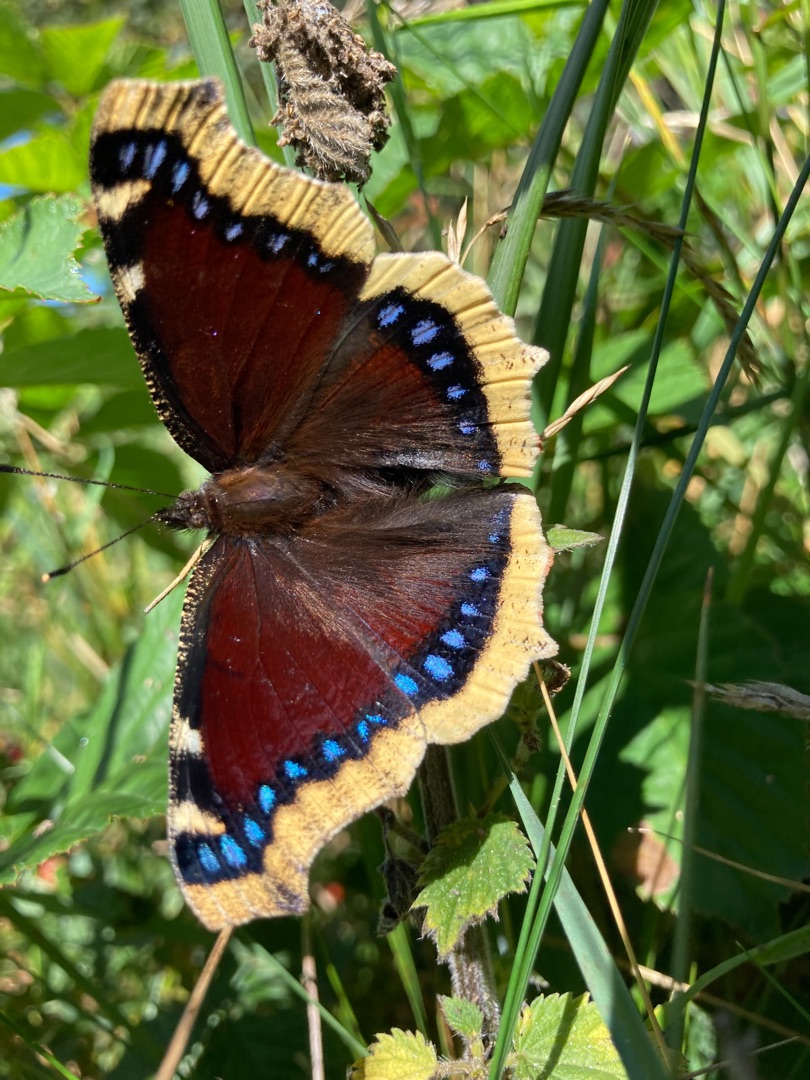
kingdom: Animalia
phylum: Arthropoda
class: Insecta
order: Lepidoptera
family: Nymphalidae
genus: Nymphalis
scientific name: Nymphalis antiopa
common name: Sørgekåbe
